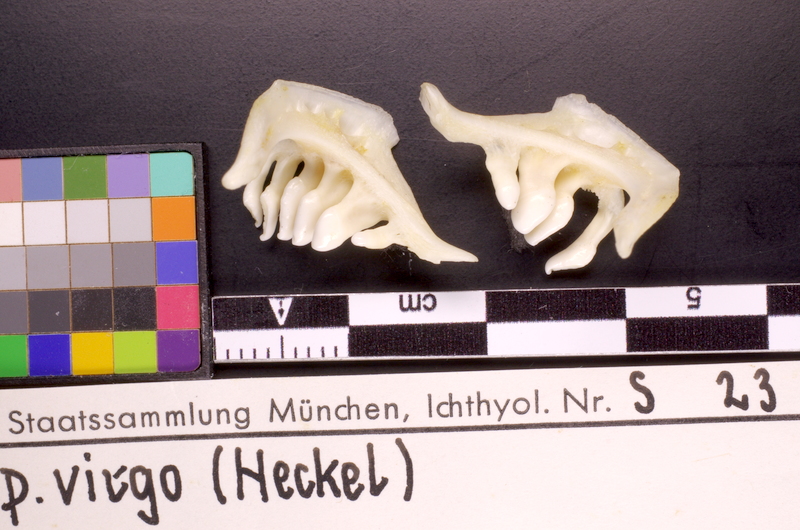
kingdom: Animalia
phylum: Chordata
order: Cypriniformes
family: Cyprinidae
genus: Rutilus
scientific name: Rutilus virgo
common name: Cactus roach
